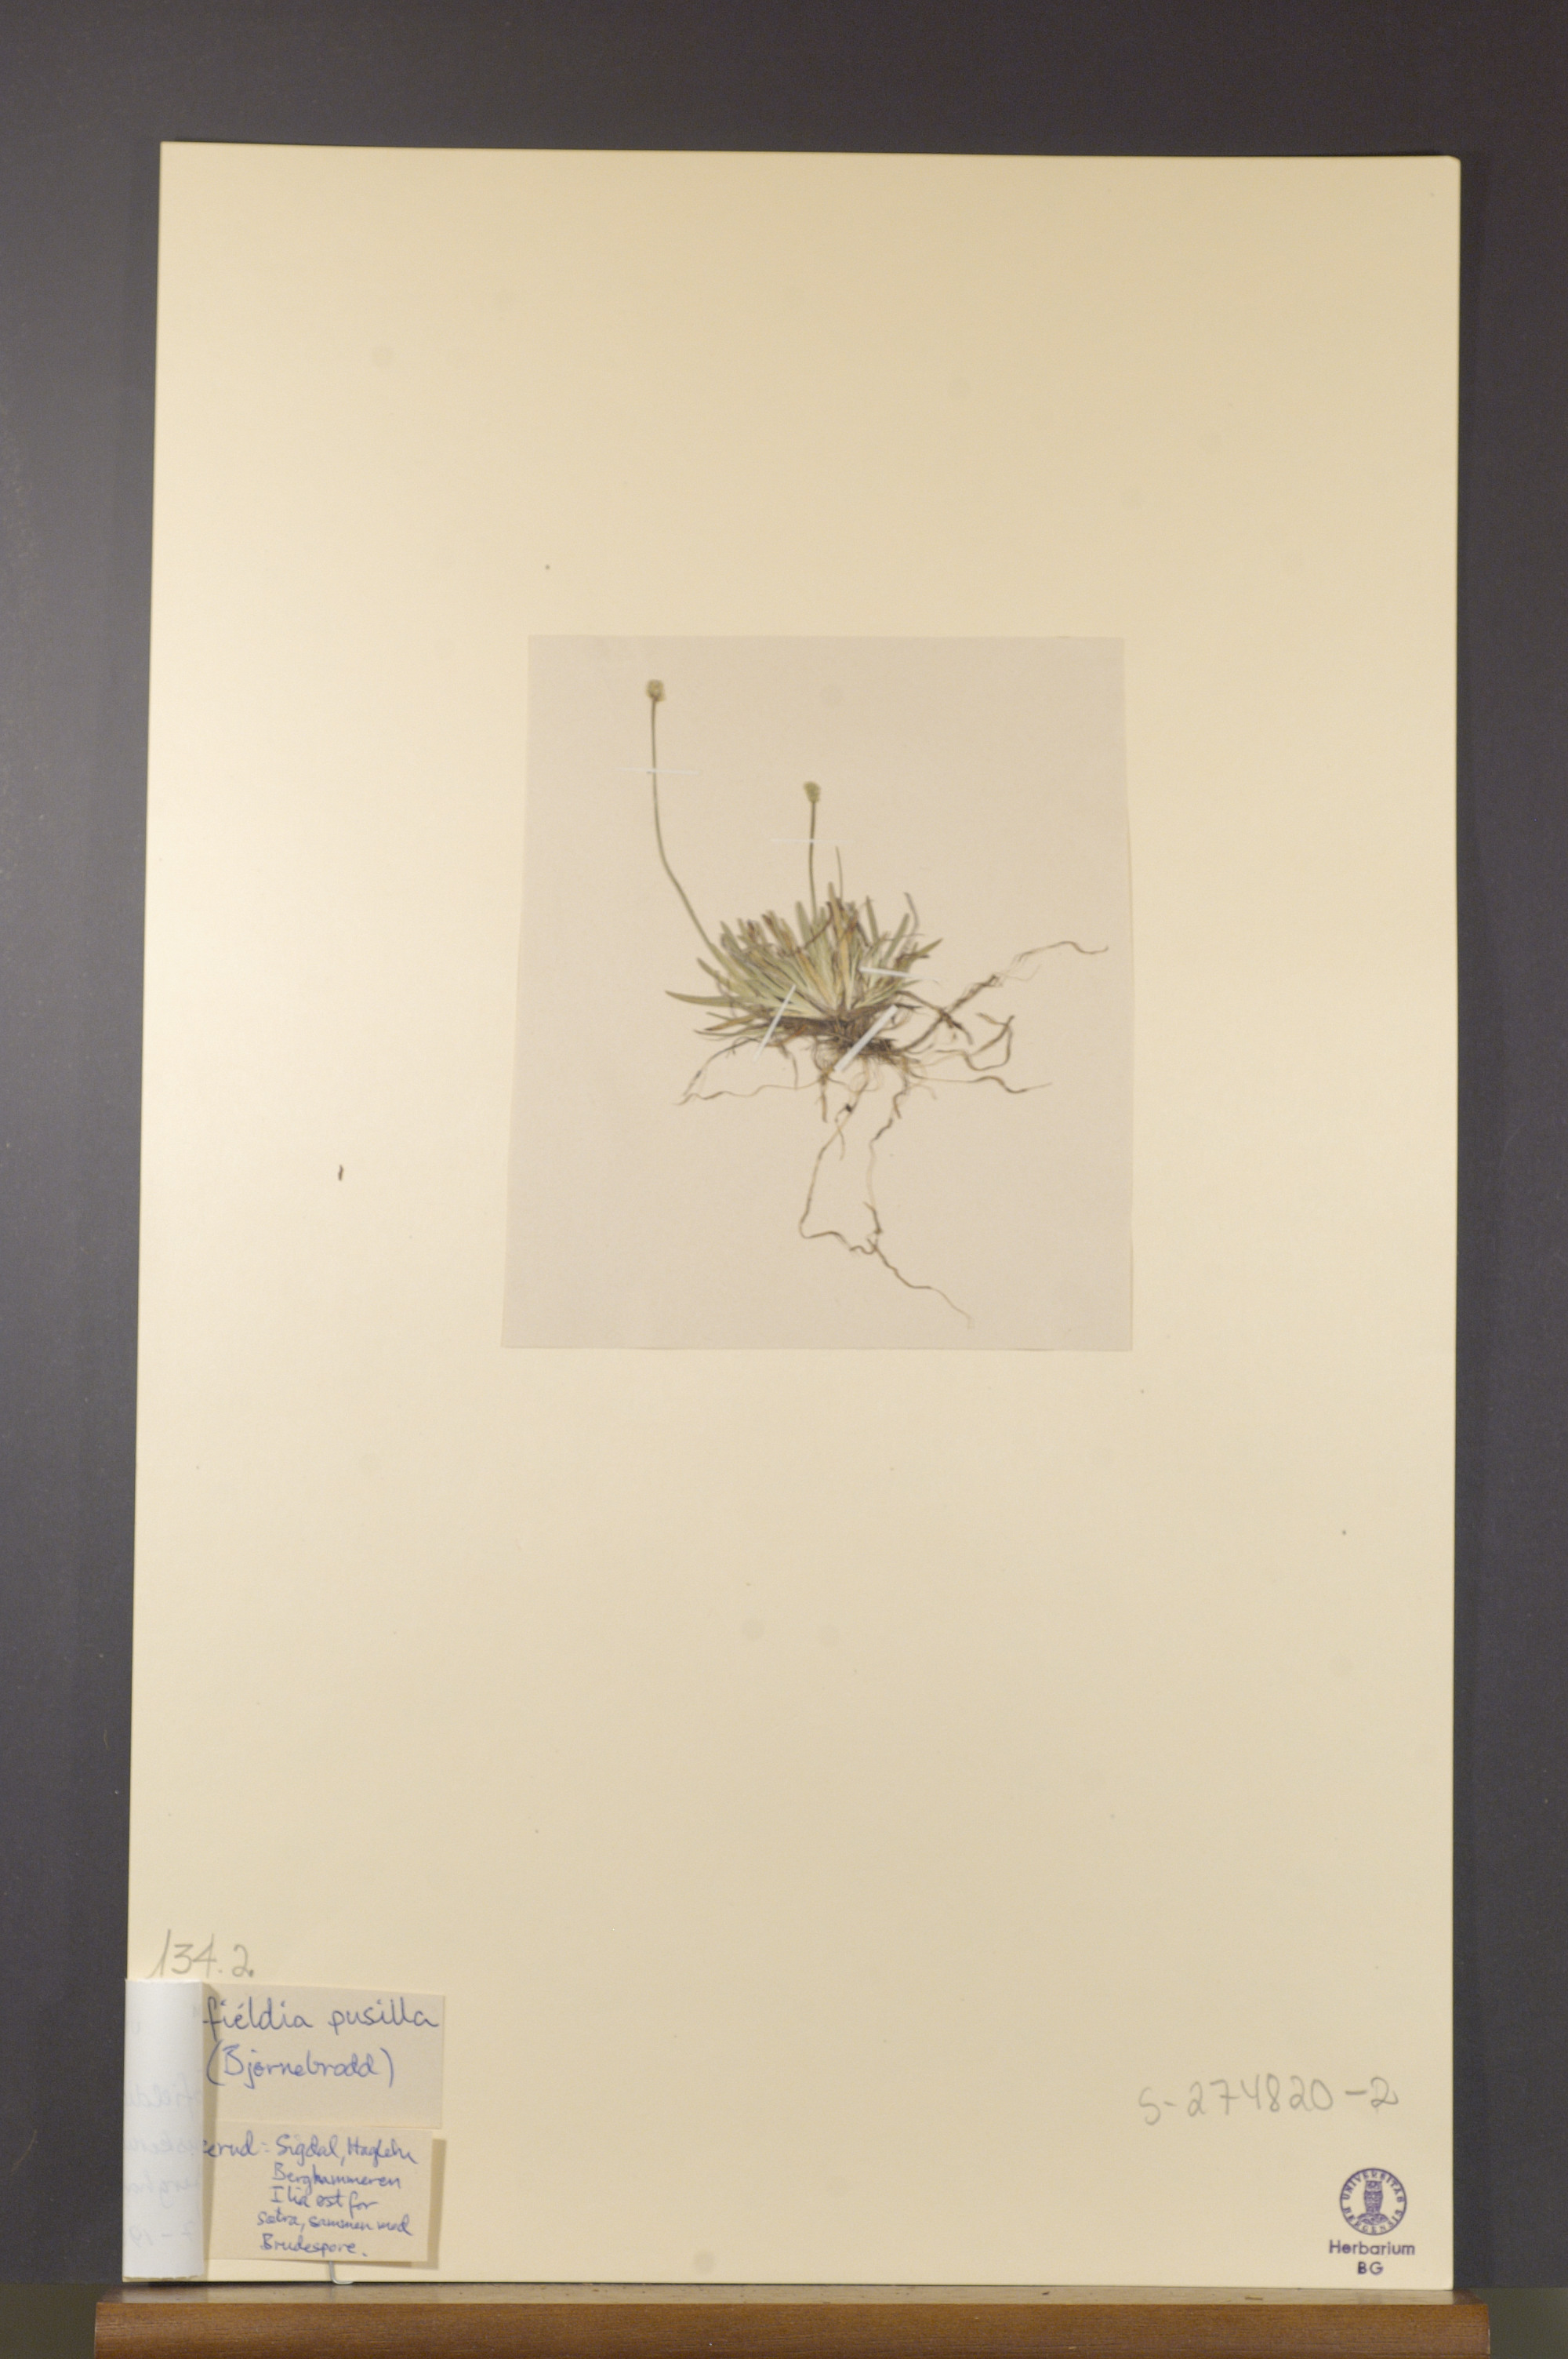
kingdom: Plantae
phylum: Tracheophyta
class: Liliopsida
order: Alismatales
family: Tofieldiaceae
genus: Tofieldia
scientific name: Tofieldia pusilla
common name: Scottish false asphodel
